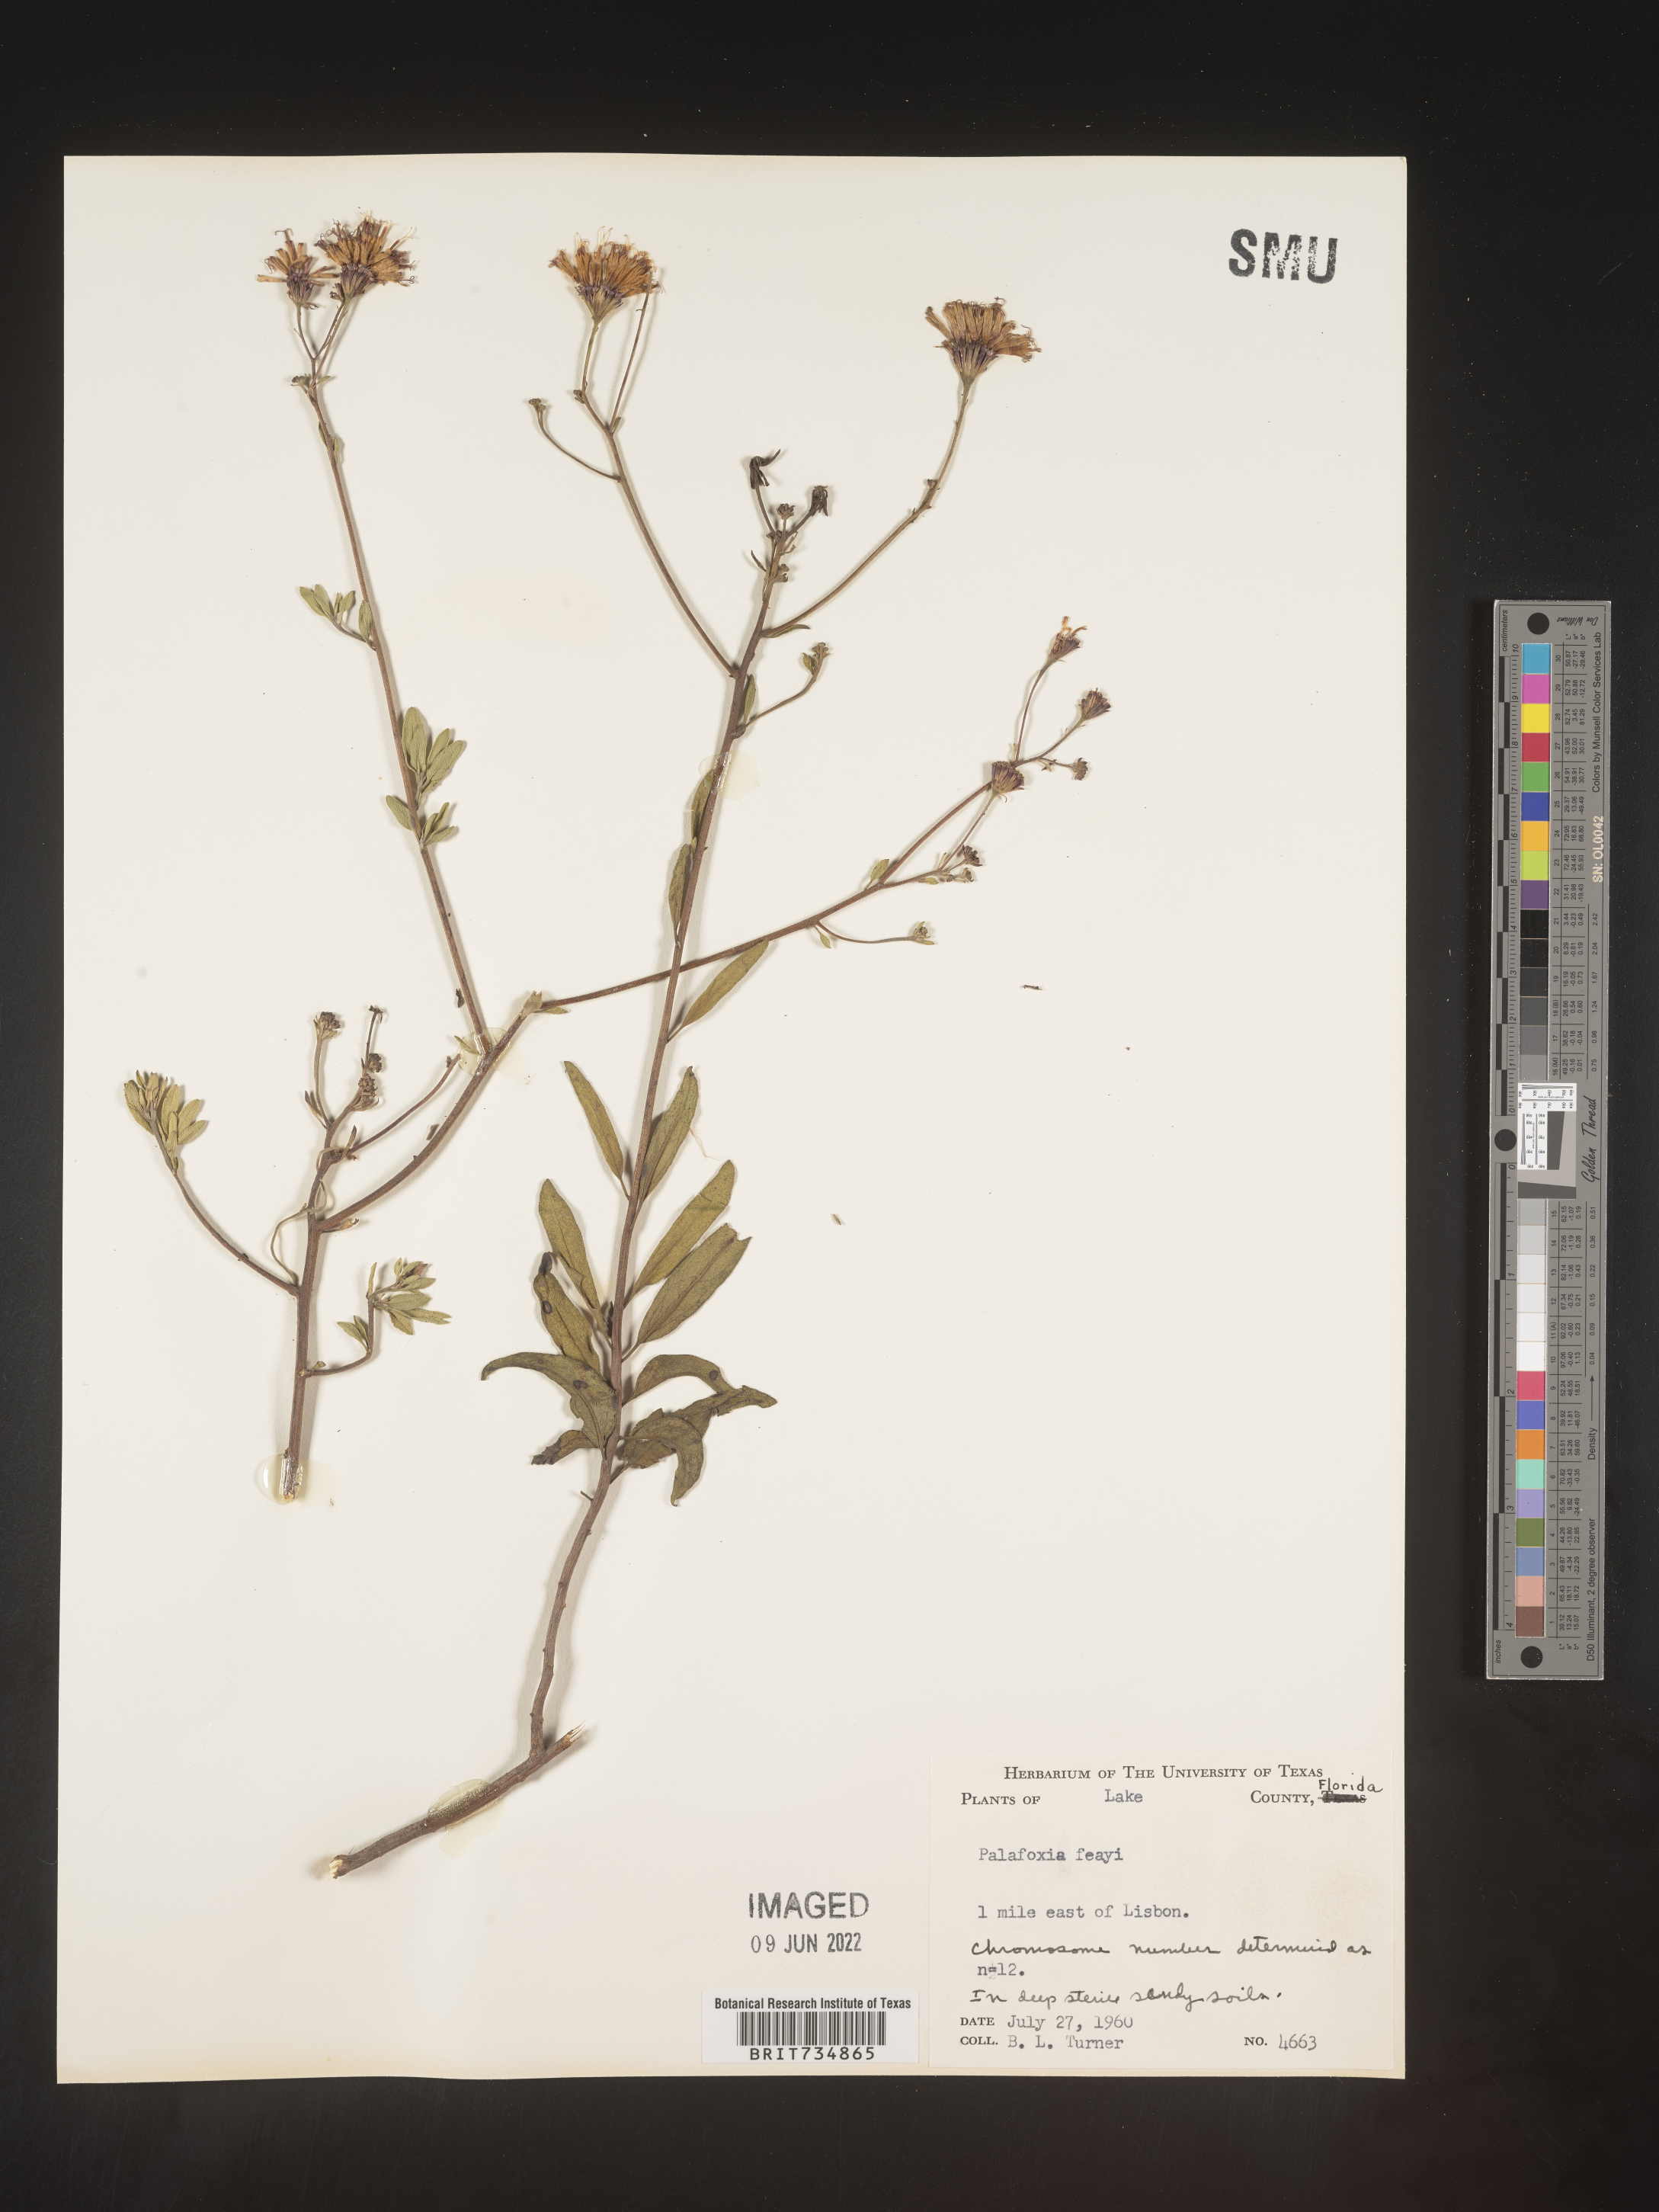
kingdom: Plantae
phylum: Tracheophyta
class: Magnoliopsida
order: Asterales
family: Asteraceae
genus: Palafoxia
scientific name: Palafoxia feayi
